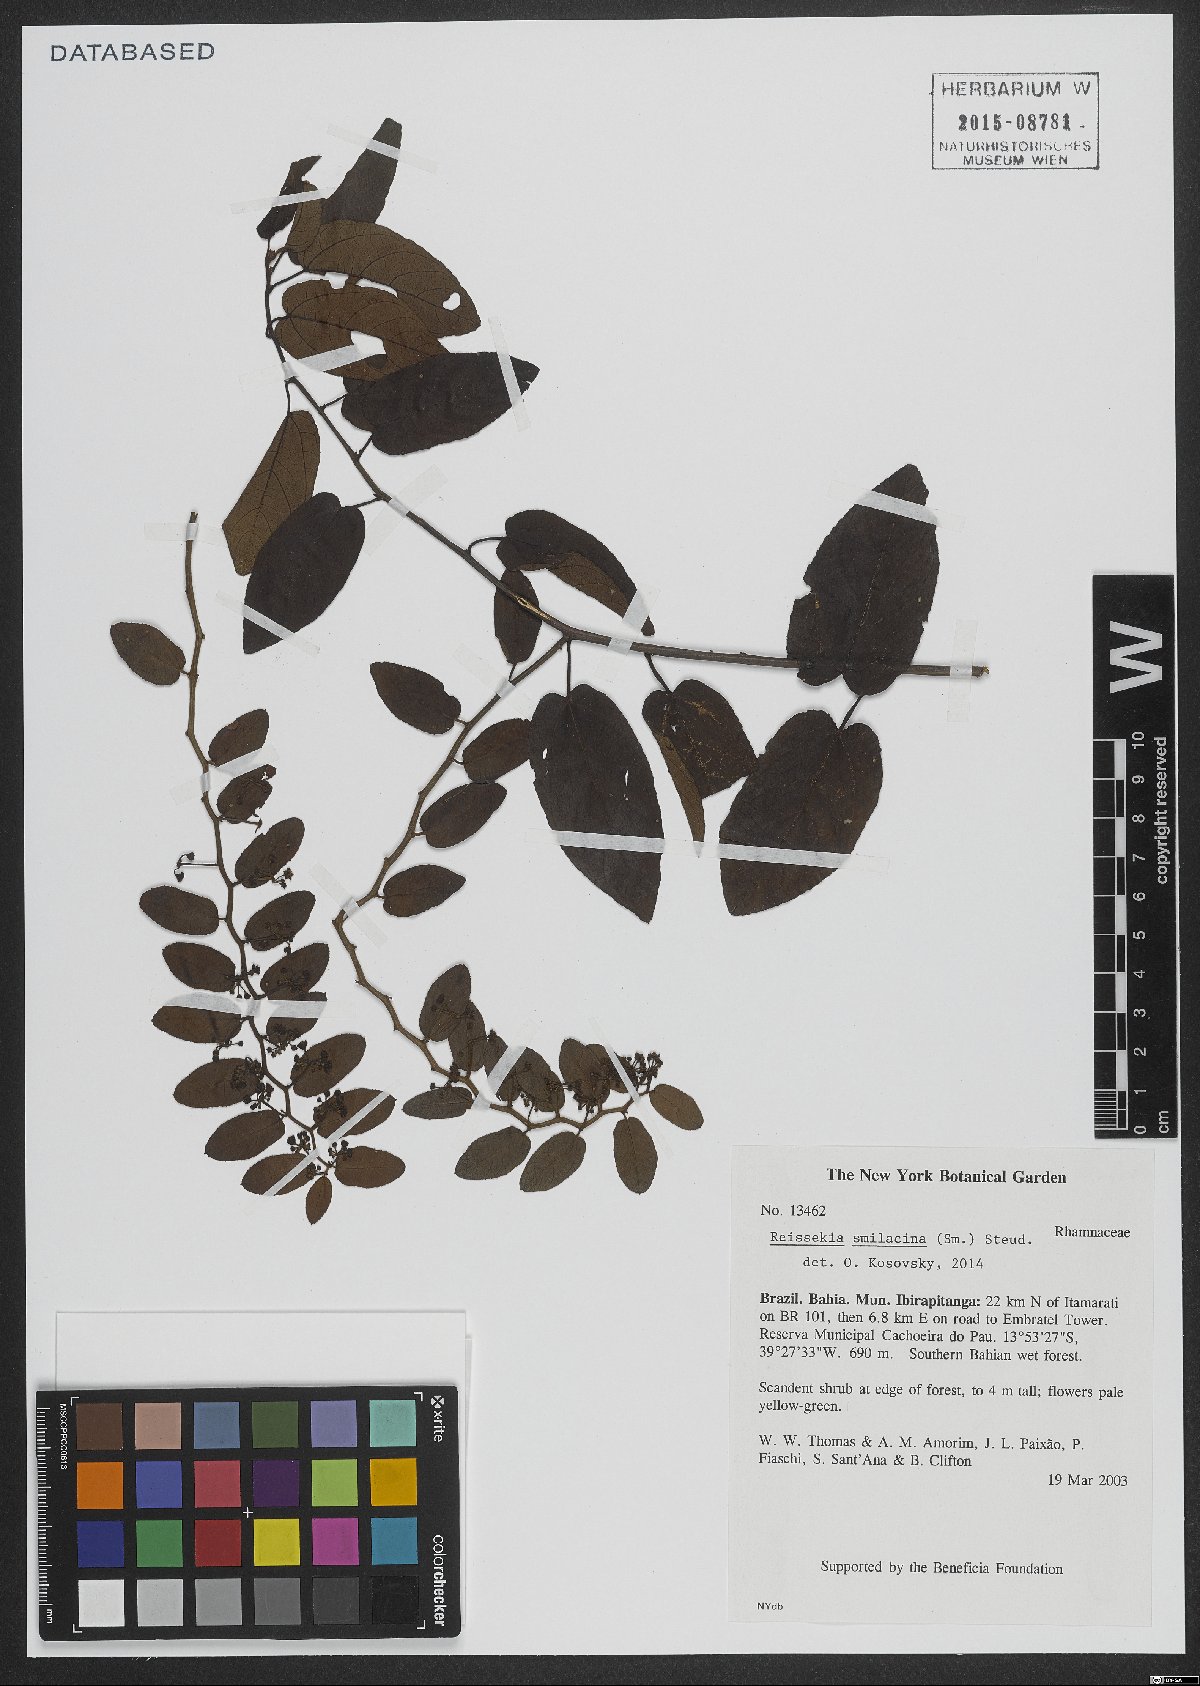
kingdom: Plantae
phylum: Tracheophyta
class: Magnoliopsida
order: Rosales
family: Rhamnaceae
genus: Reissekia
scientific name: Reissekia smilacina
